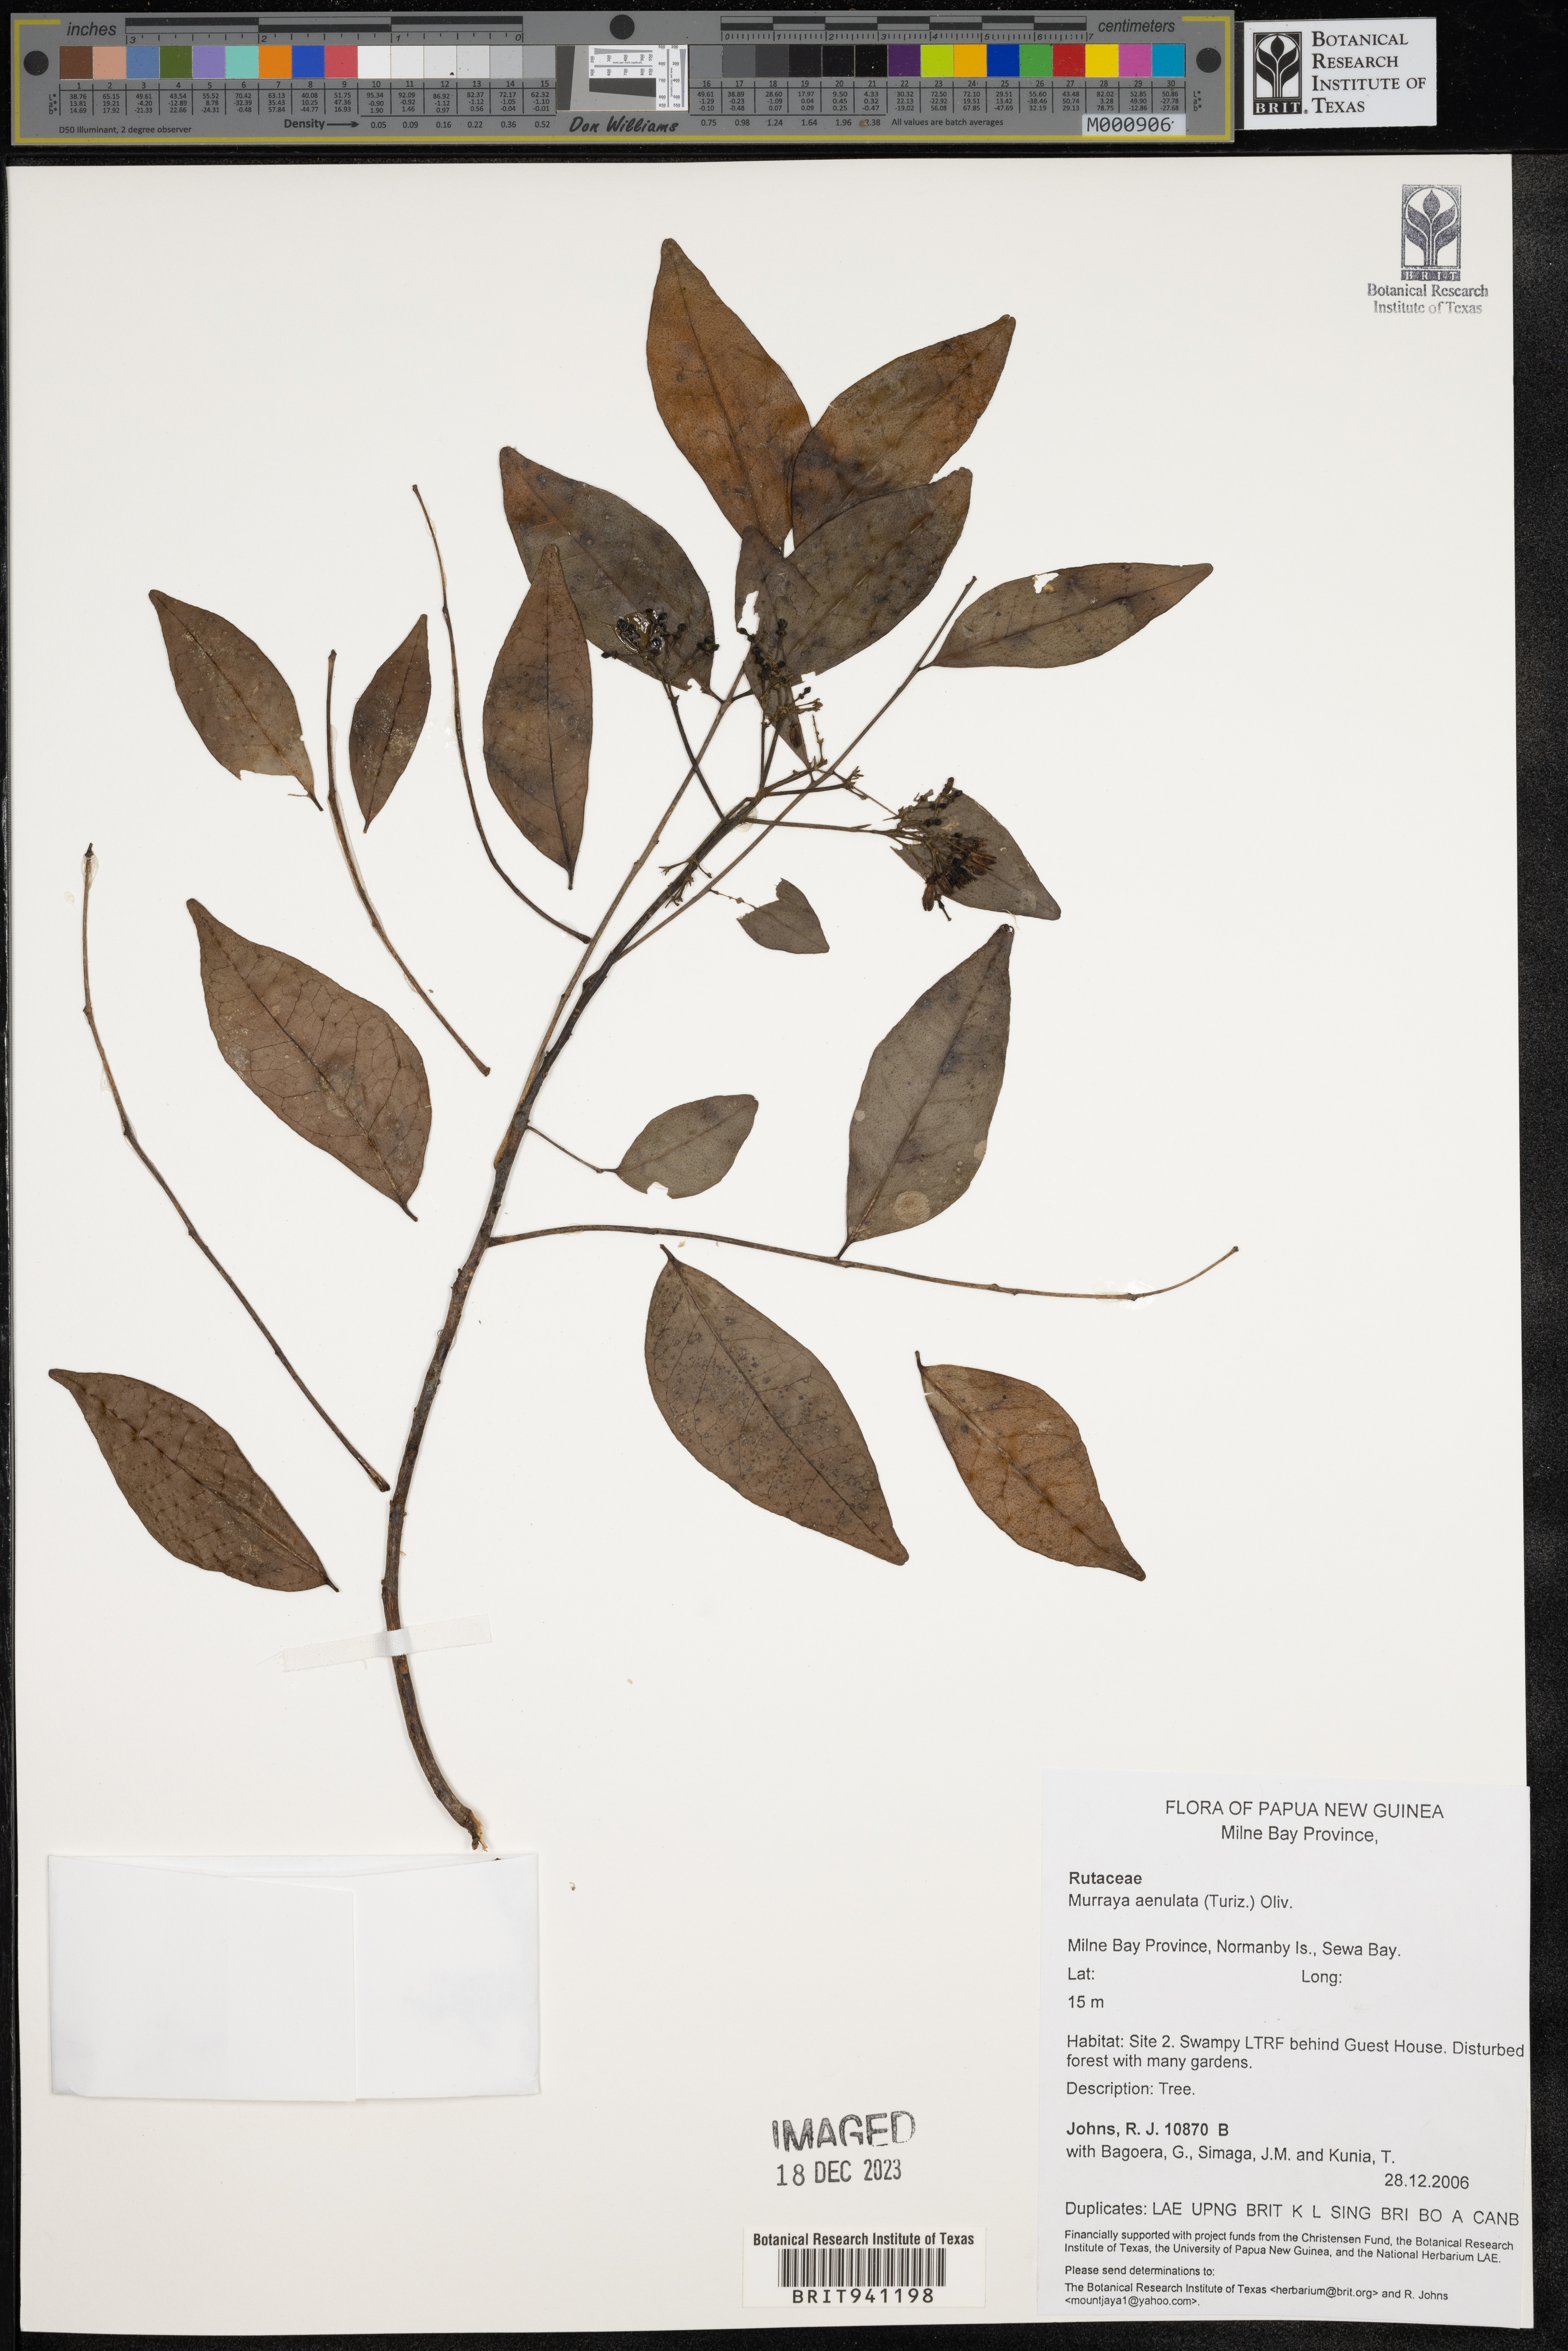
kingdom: Plantae
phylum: Tracheophyta
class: Magnoliopsida
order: Sapindales
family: Rutaceae
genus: Murraya
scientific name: Murraya
